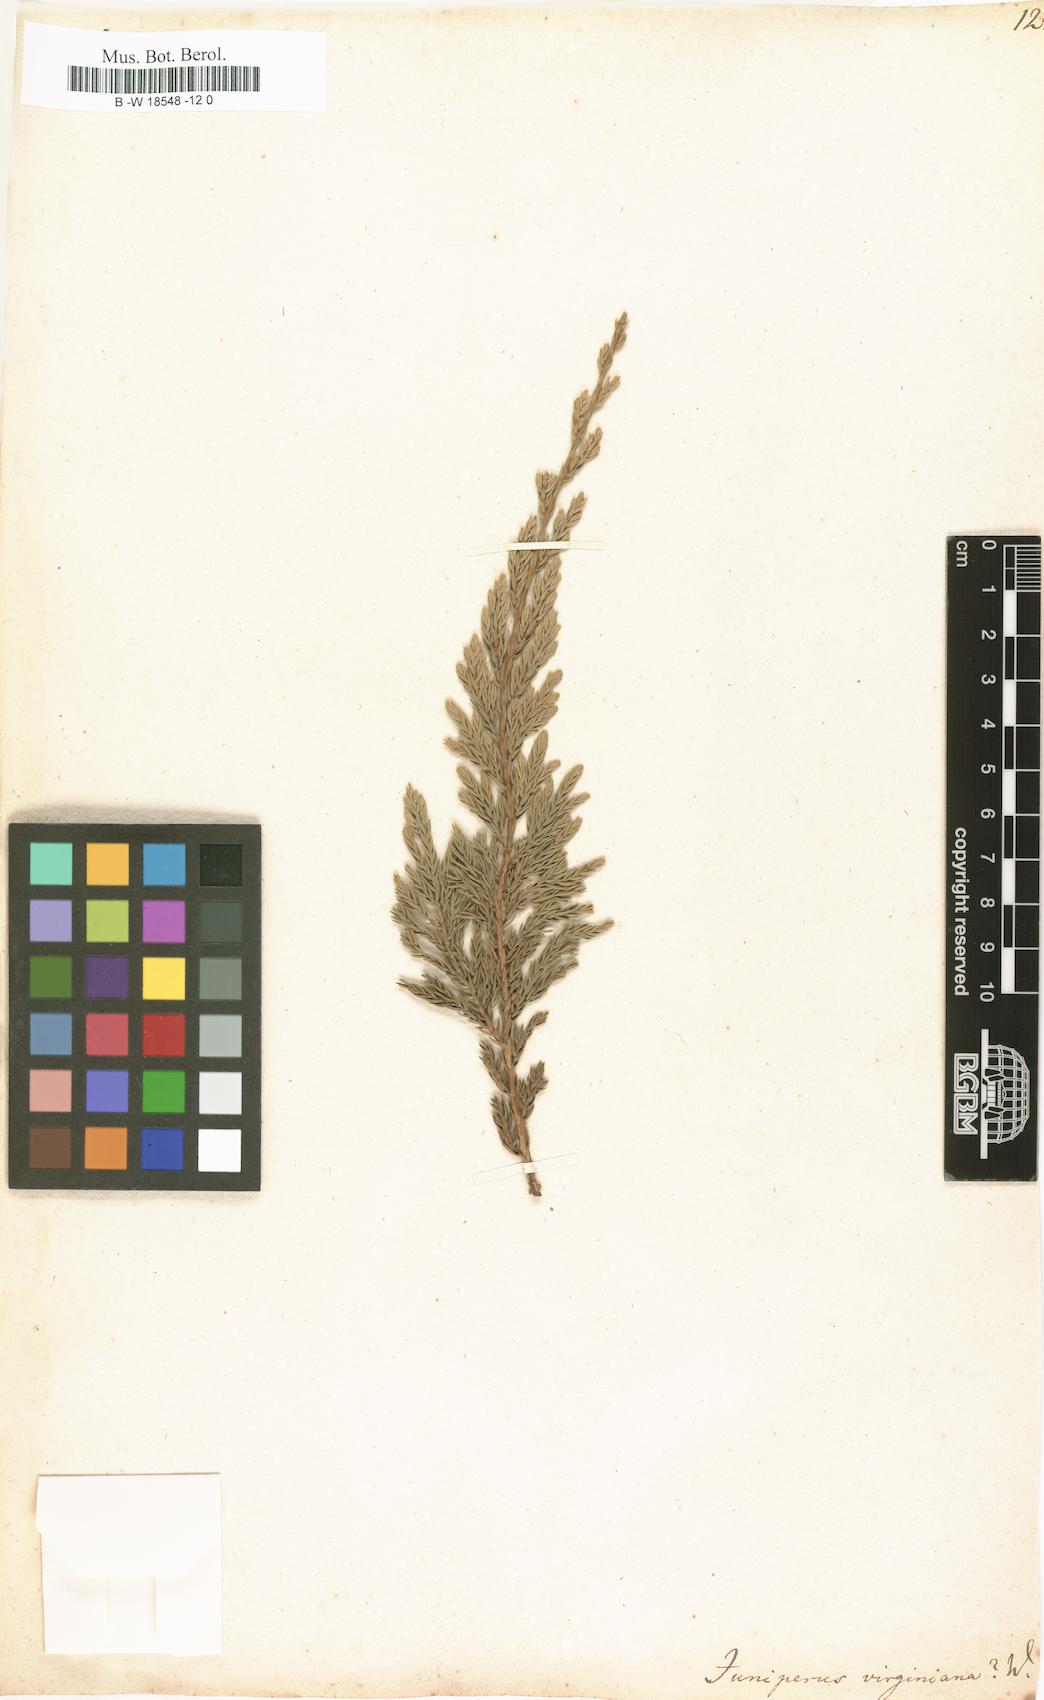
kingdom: Plantae
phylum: Tracheophyta
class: Pinopsida
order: Pinales
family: Cupressaceae
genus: Juniperus
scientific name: Juniperus virginiana
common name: Red juniper
